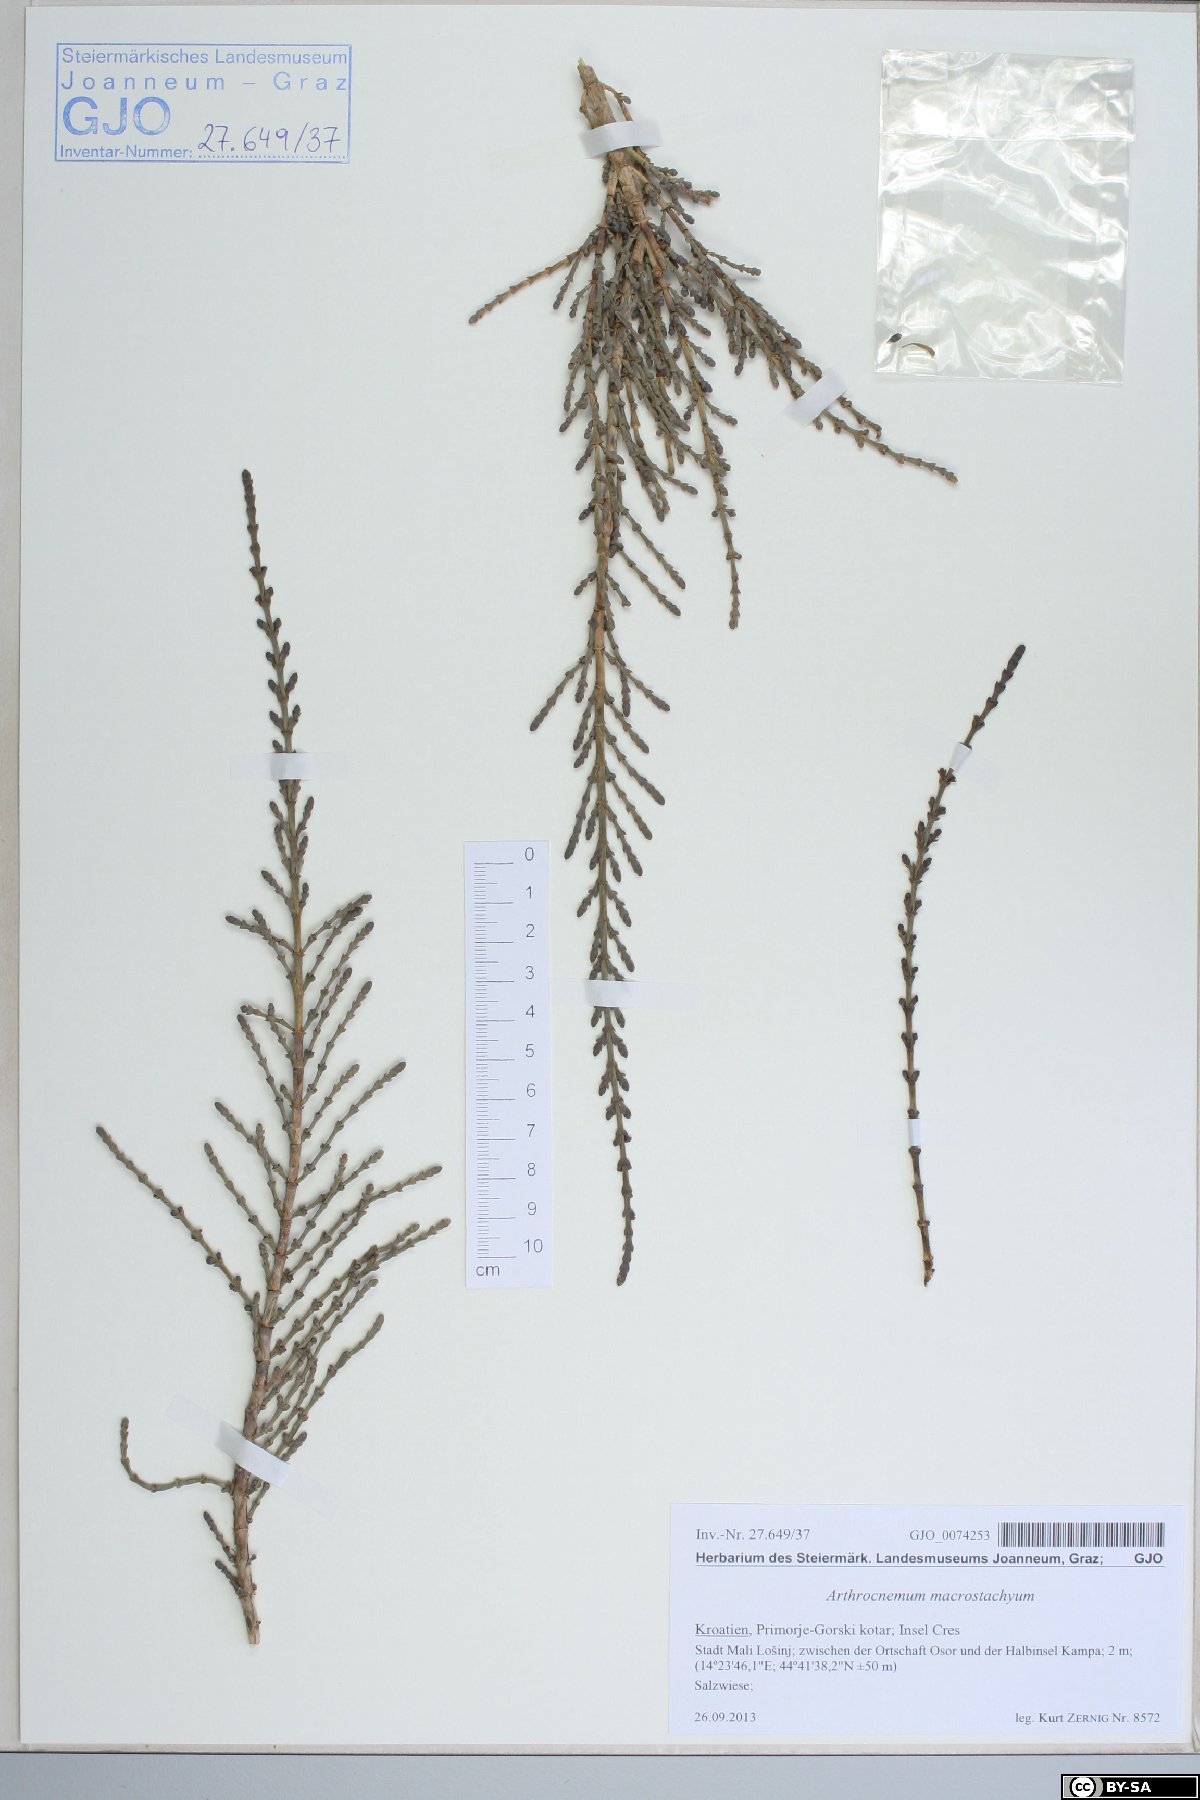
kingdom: Plantae
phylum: Tracheophyta
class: Magnoliopsida
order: Caryophyllales
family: Amaranthaceae
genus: Arthrocaulon
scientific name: Arthrocaulon macrostachyum
